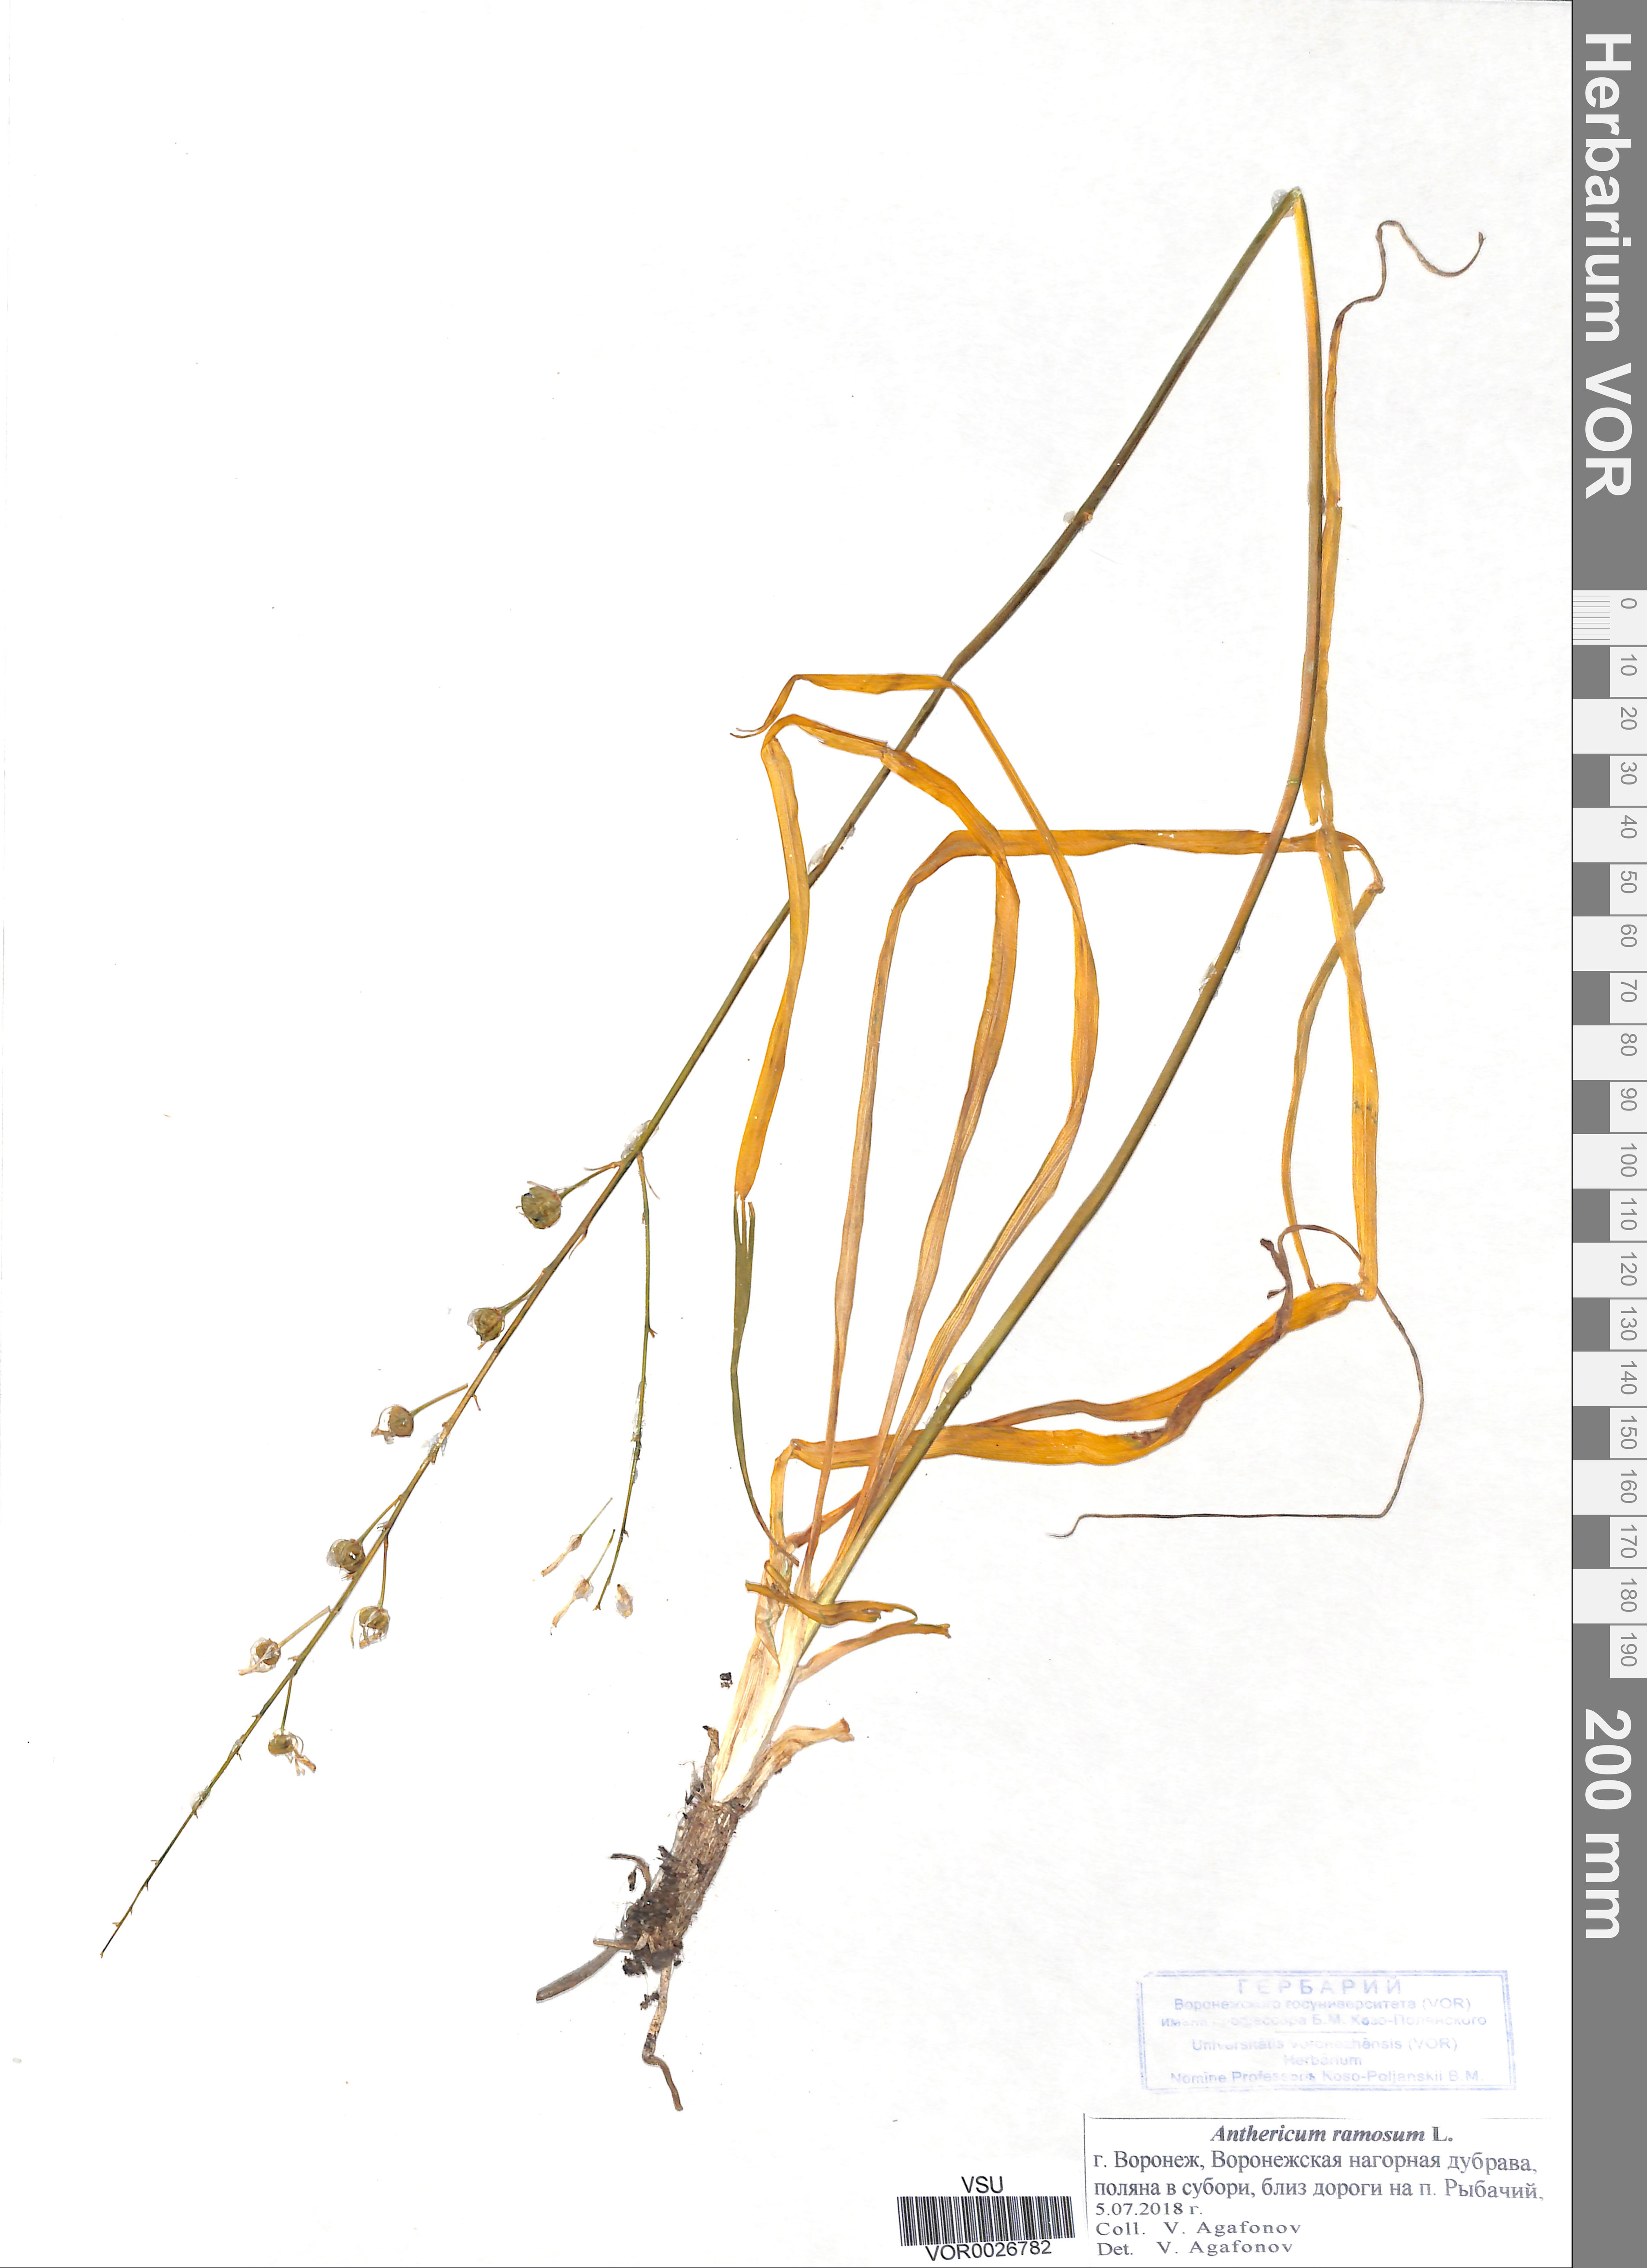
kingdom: Plantae
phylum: Tracheophyta
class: Liliopsida
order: Asparagales
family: Asparagaceae
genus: Anthericum
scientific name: Anthericum ramosum
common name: Branched st. bernard's-lily
